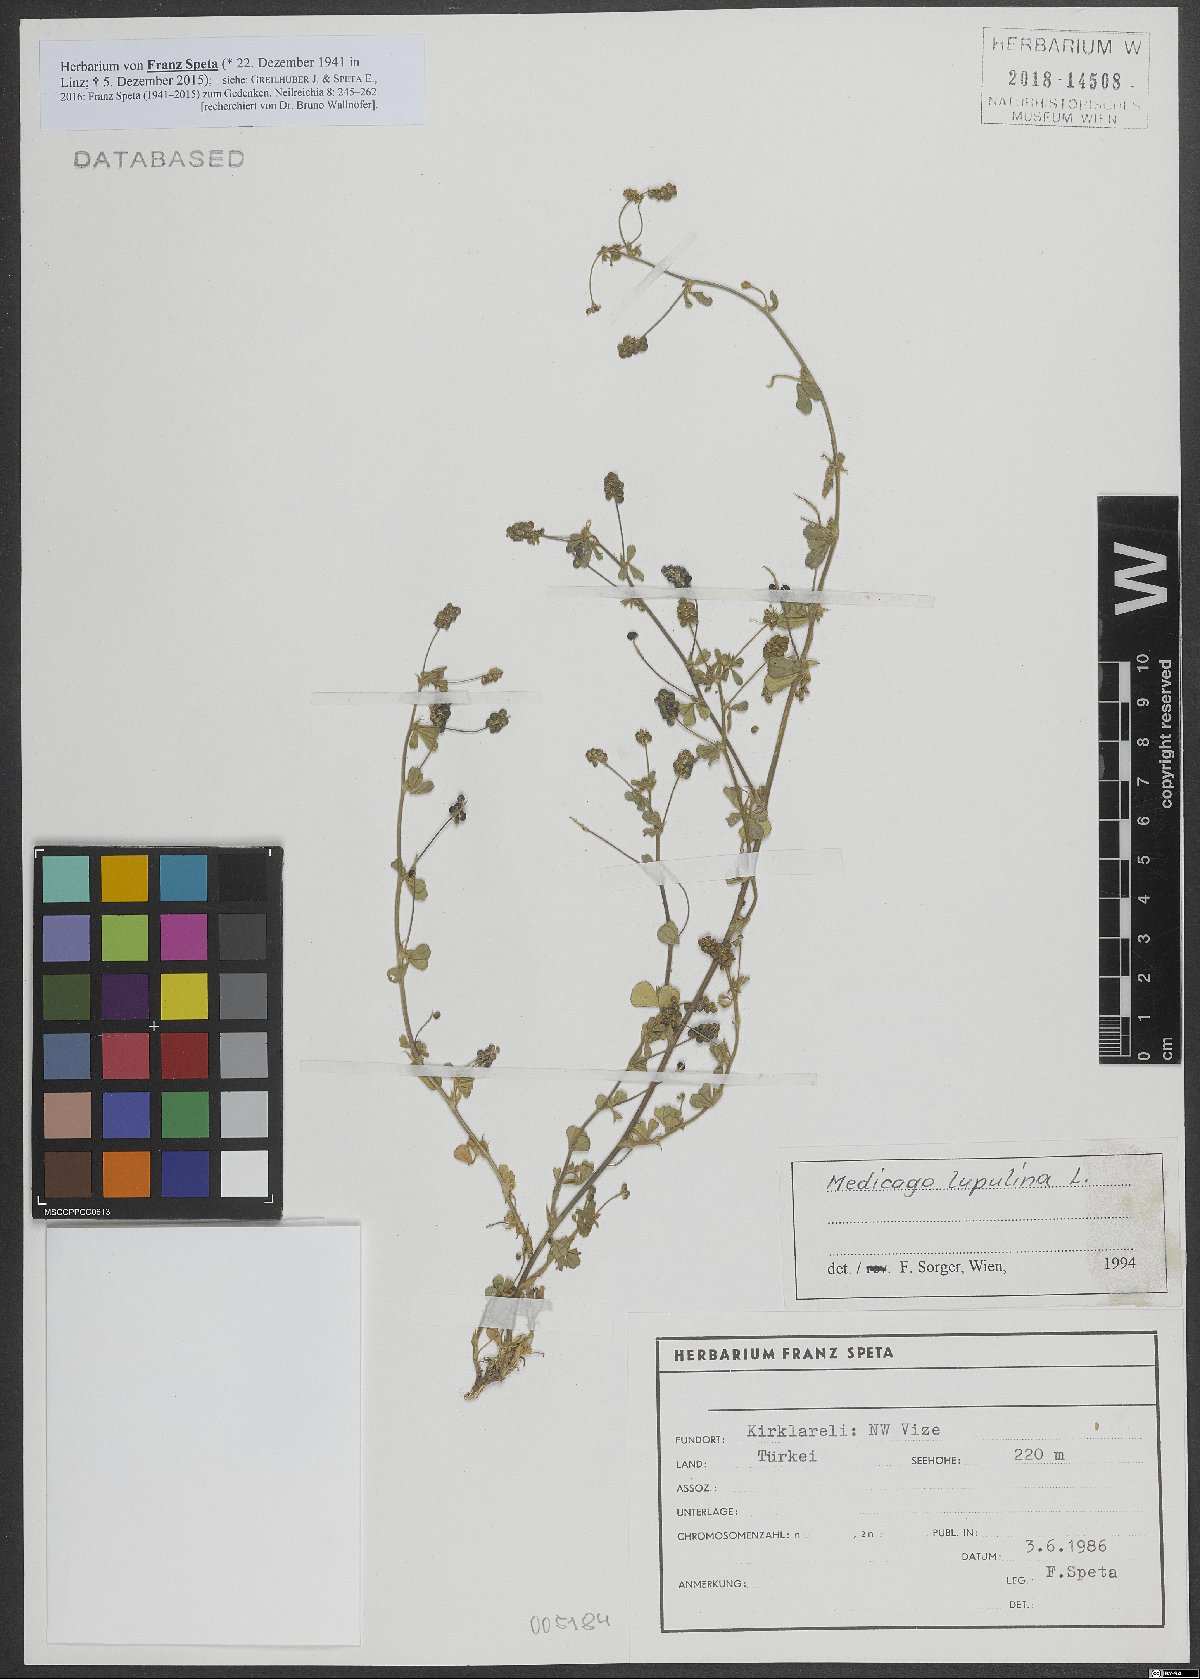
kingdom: Plantae
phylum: Tracheophyta
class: Magnoliopsida
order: Fabales
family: Fabaceae
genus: Medicago
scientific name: Medicago lupulina
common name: Black medick
